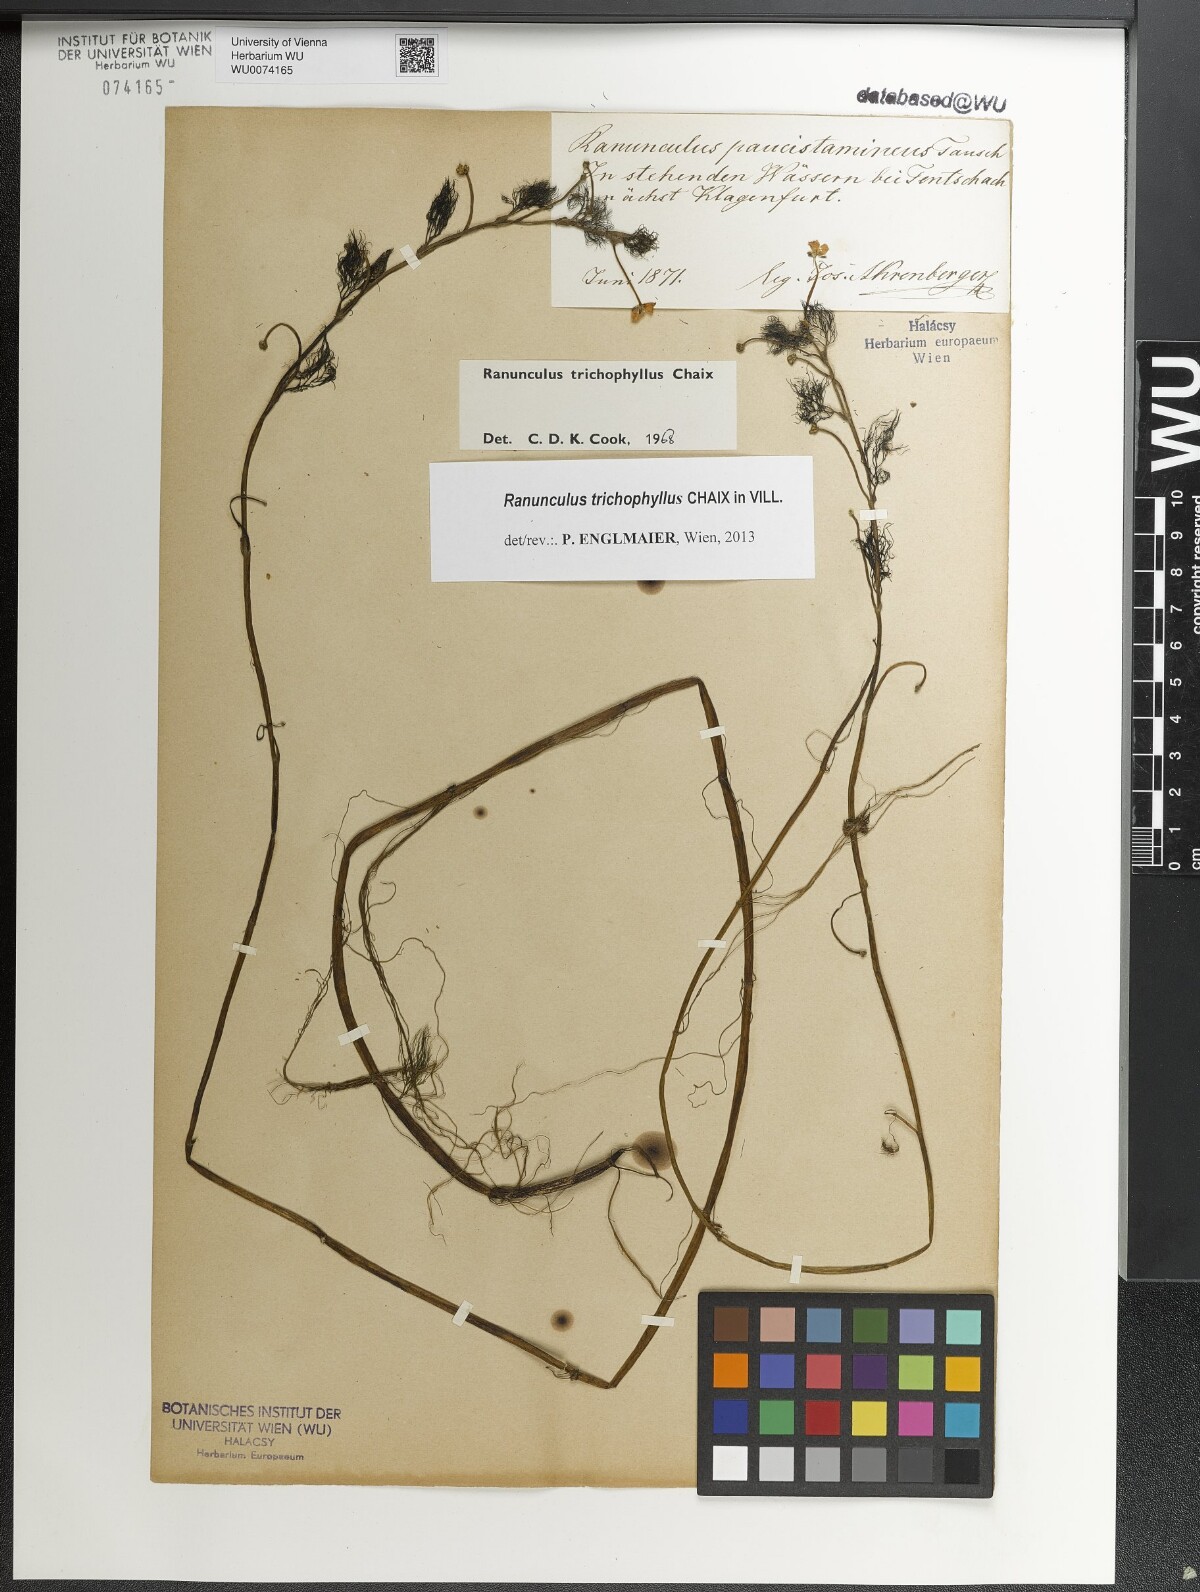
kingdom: Plantae
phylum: Tracheophyta
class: Magnoliopsida
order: Ranunculales
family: Ranunculaceae
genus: Ranunculus
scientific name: Ranunculus trichophyllus
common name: Thread-leaved water-crowfoot
